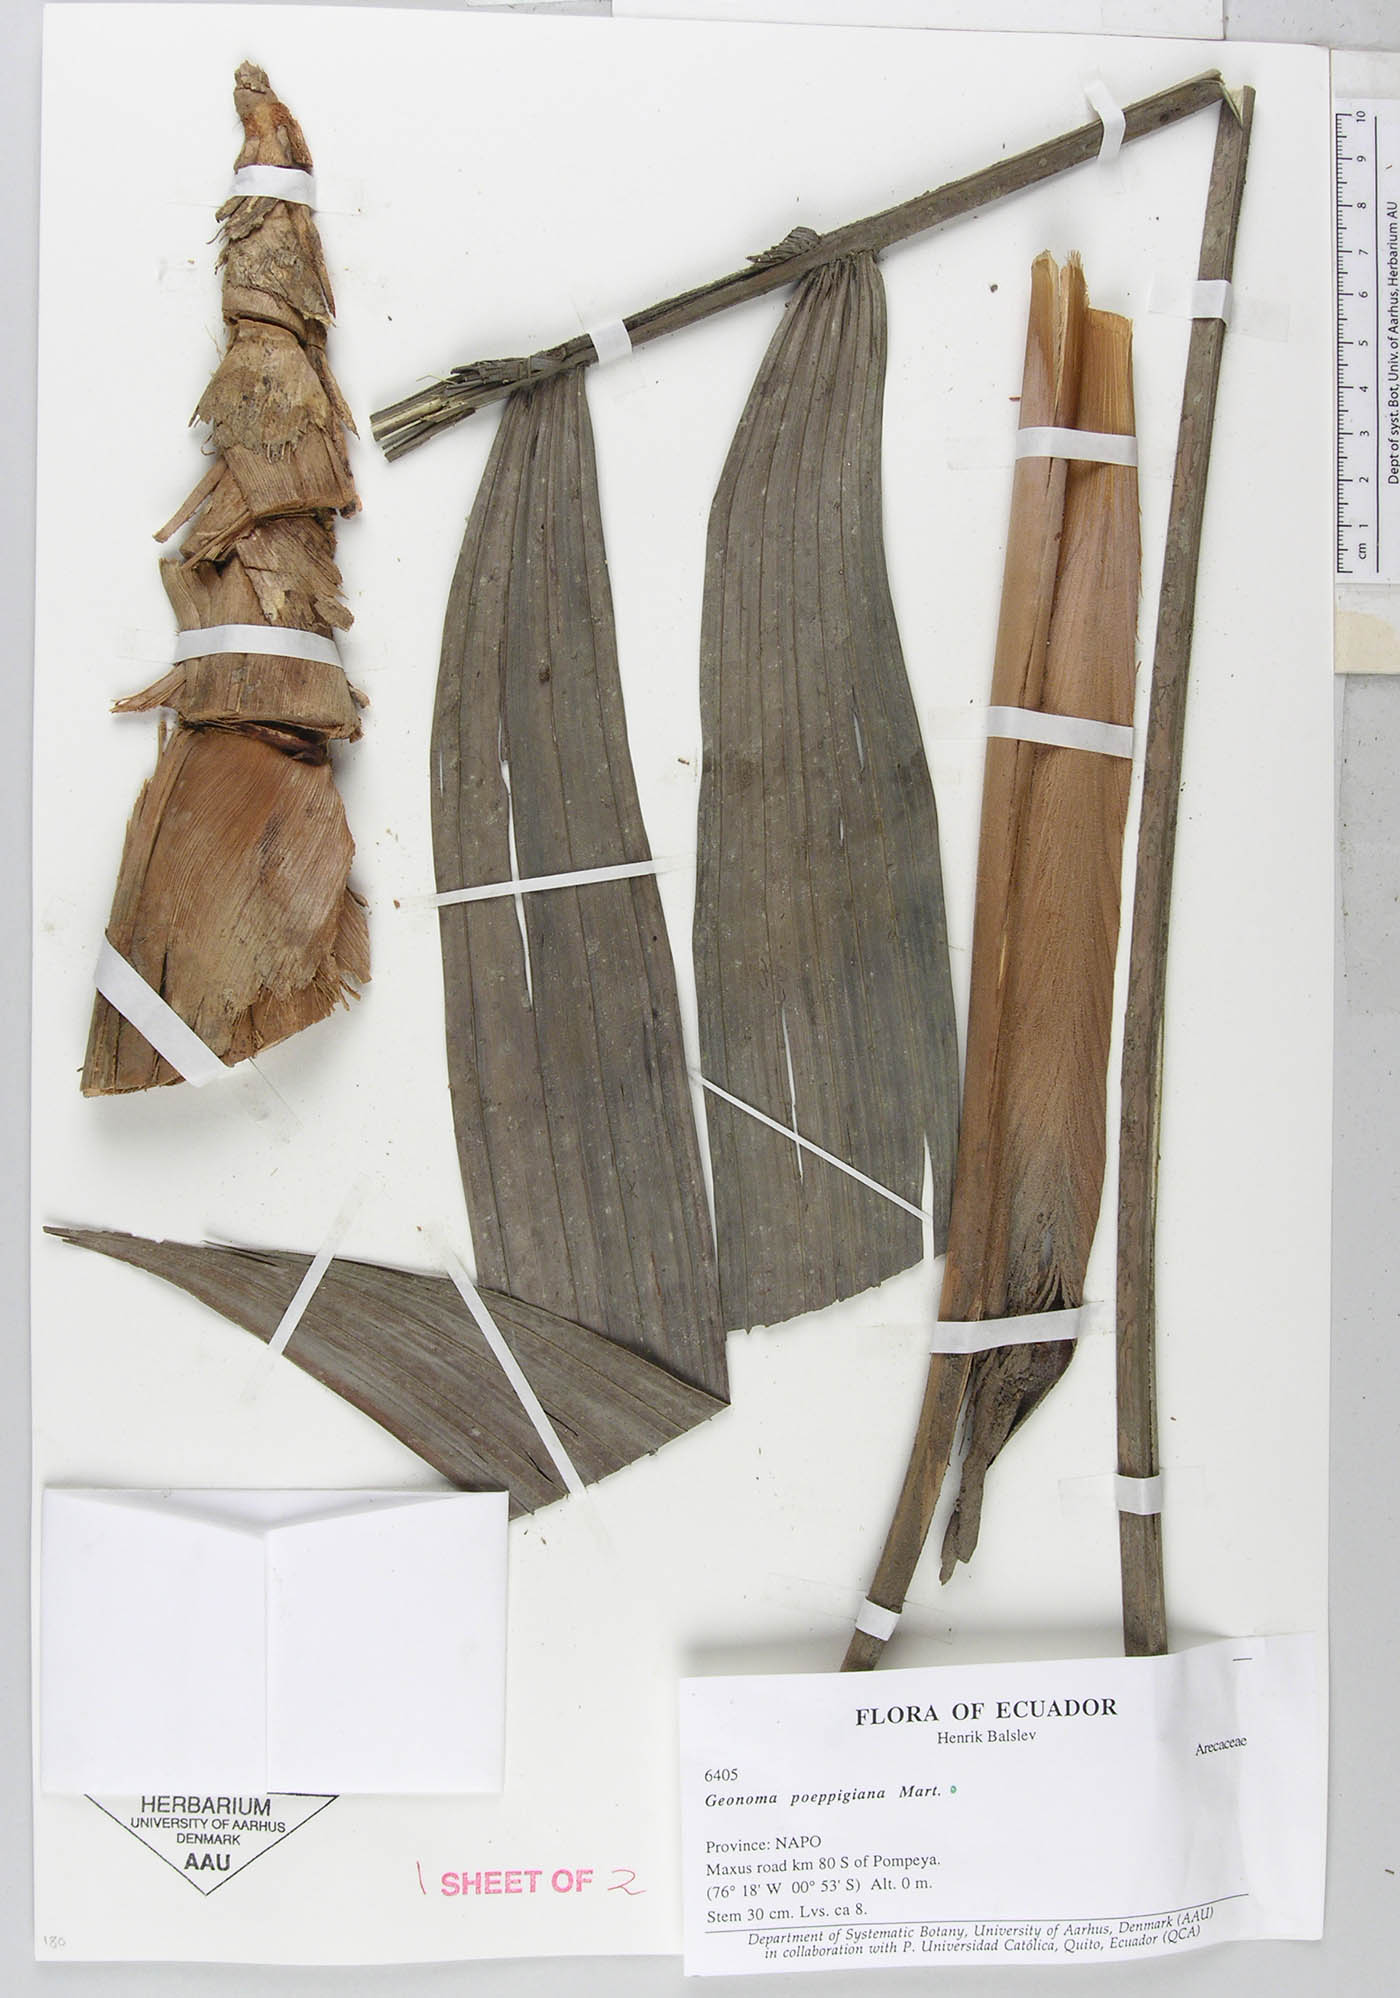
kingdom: Plantae
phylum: Tracheophyta
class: Liliopsida
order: Arecales
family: Arecaceae
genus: Geonoma
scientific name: Geonoma poeppigiana
